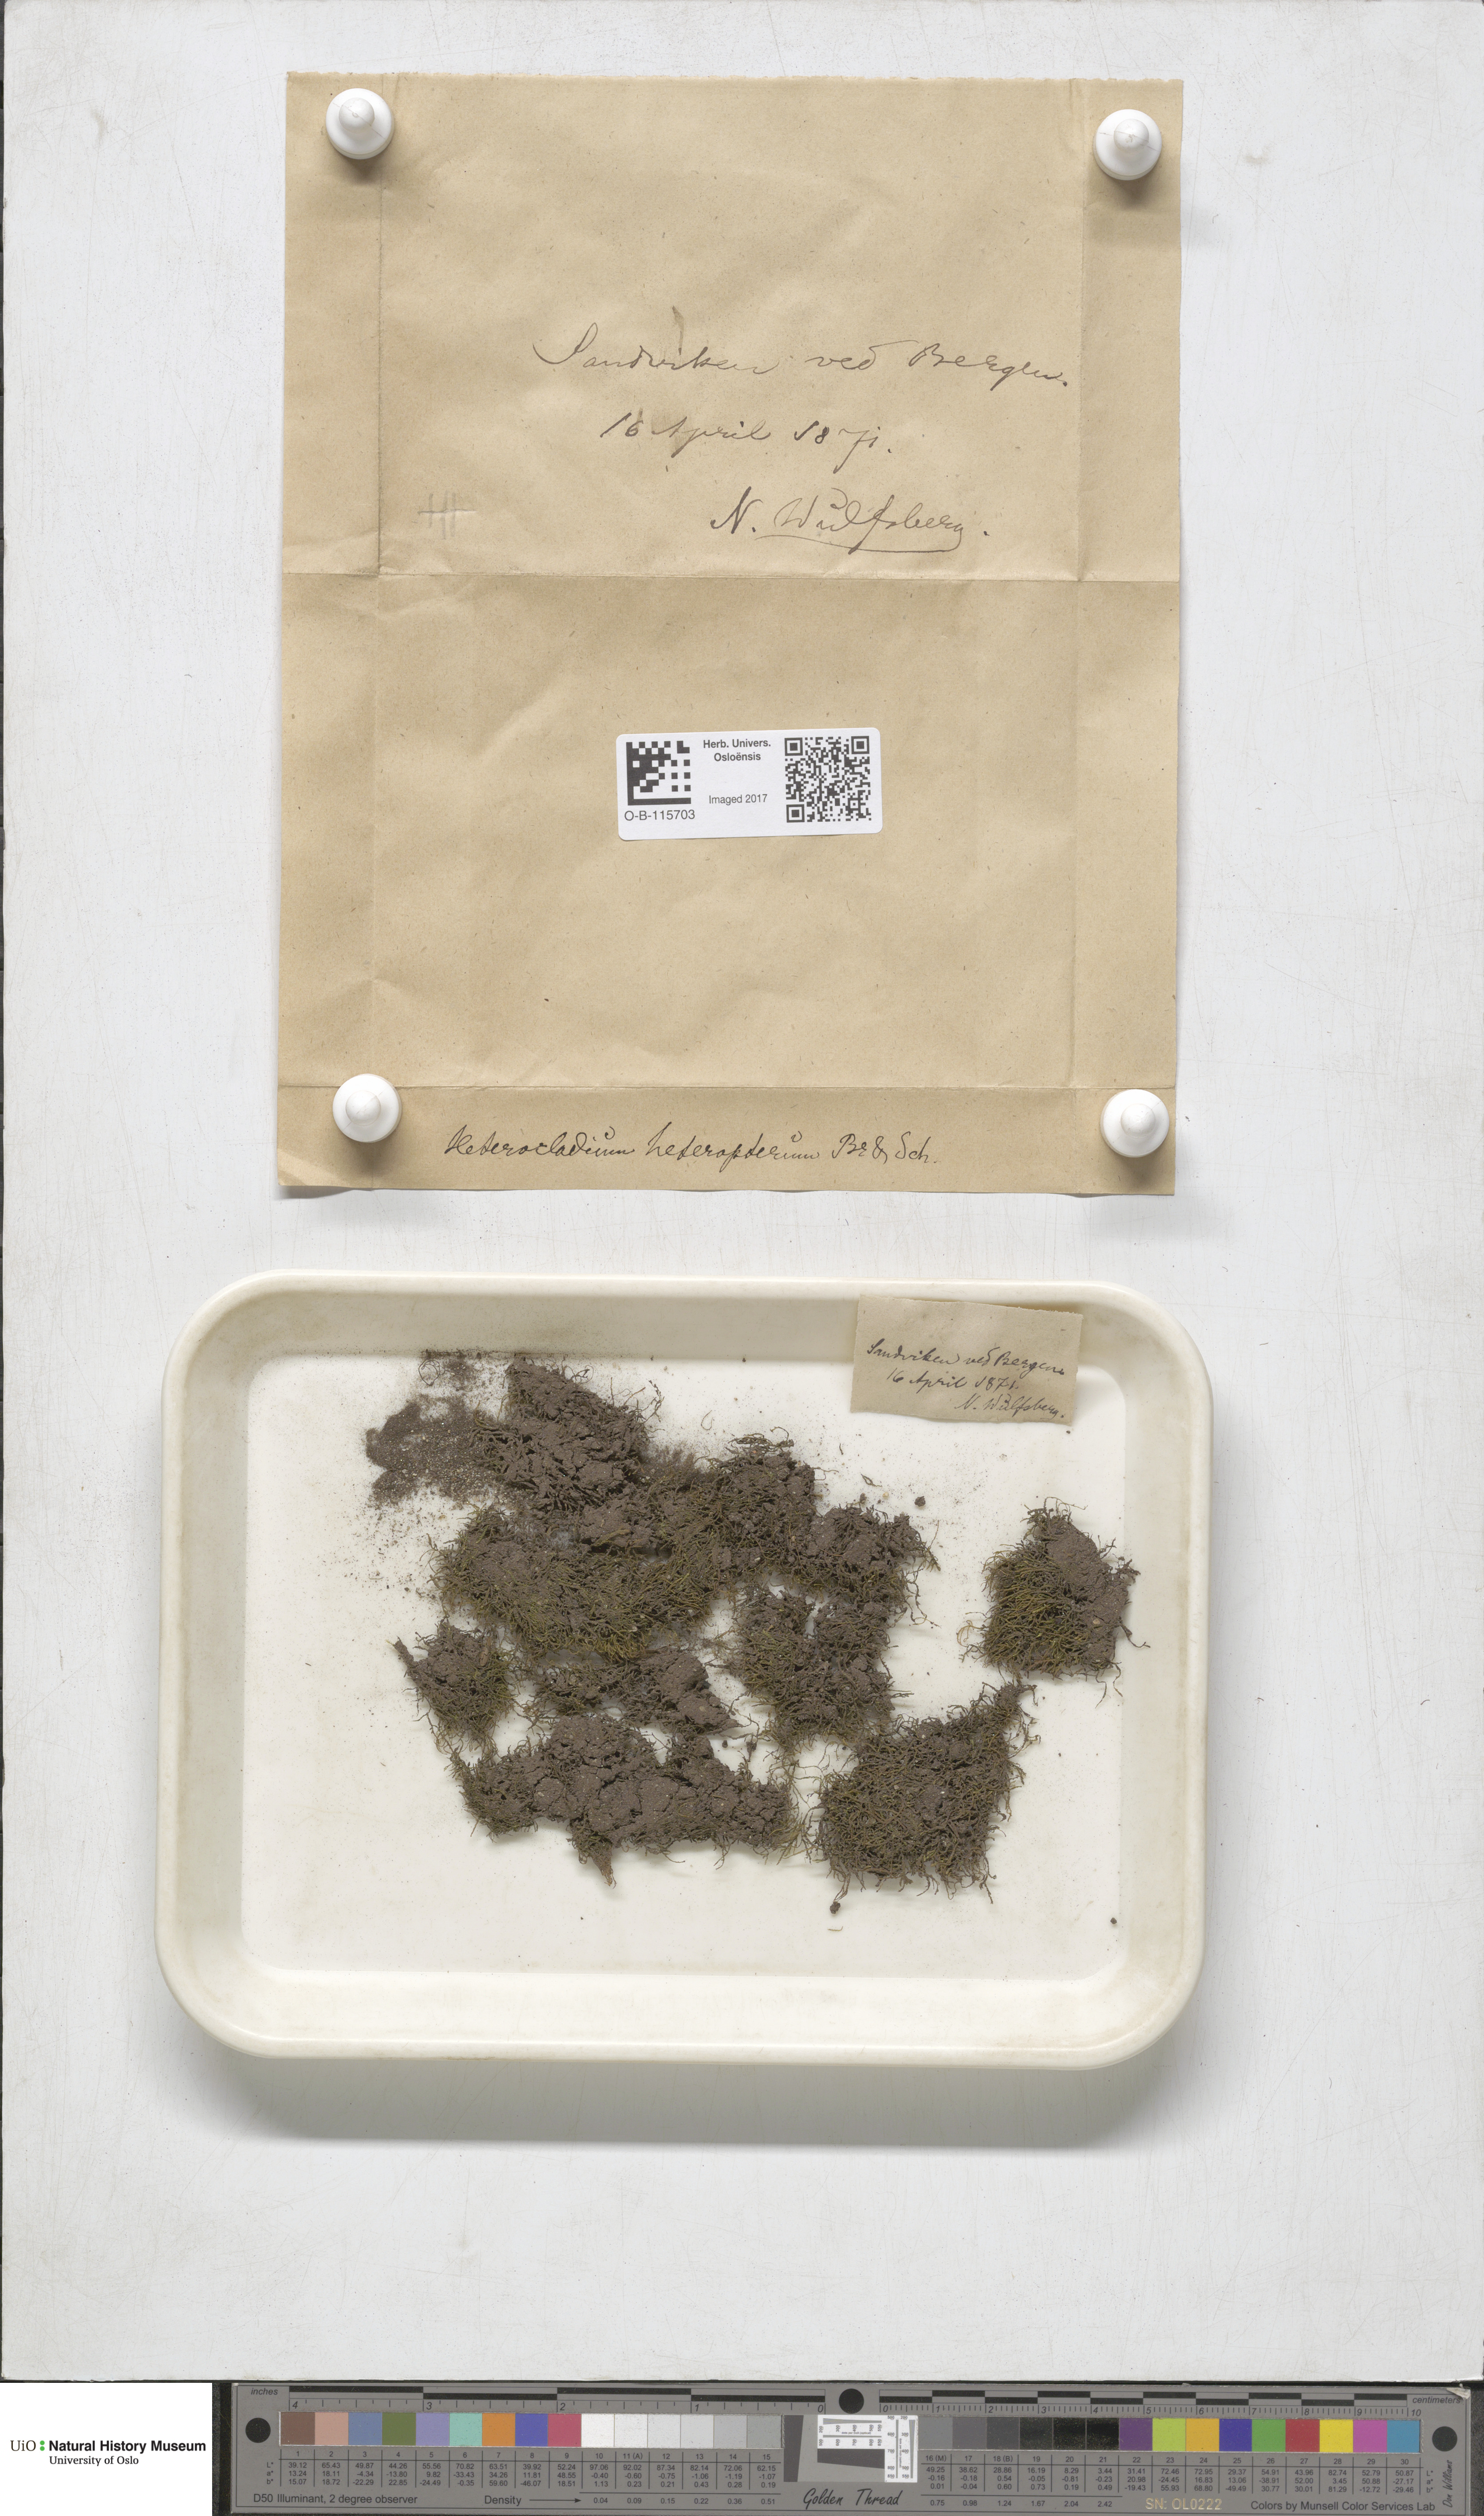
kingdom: Plantae
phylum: Bryophyta
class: Bryopsida
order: Hypnales
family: Lembophyllaceae
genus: Heterocladium
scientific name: Heterocladium heteropterum
